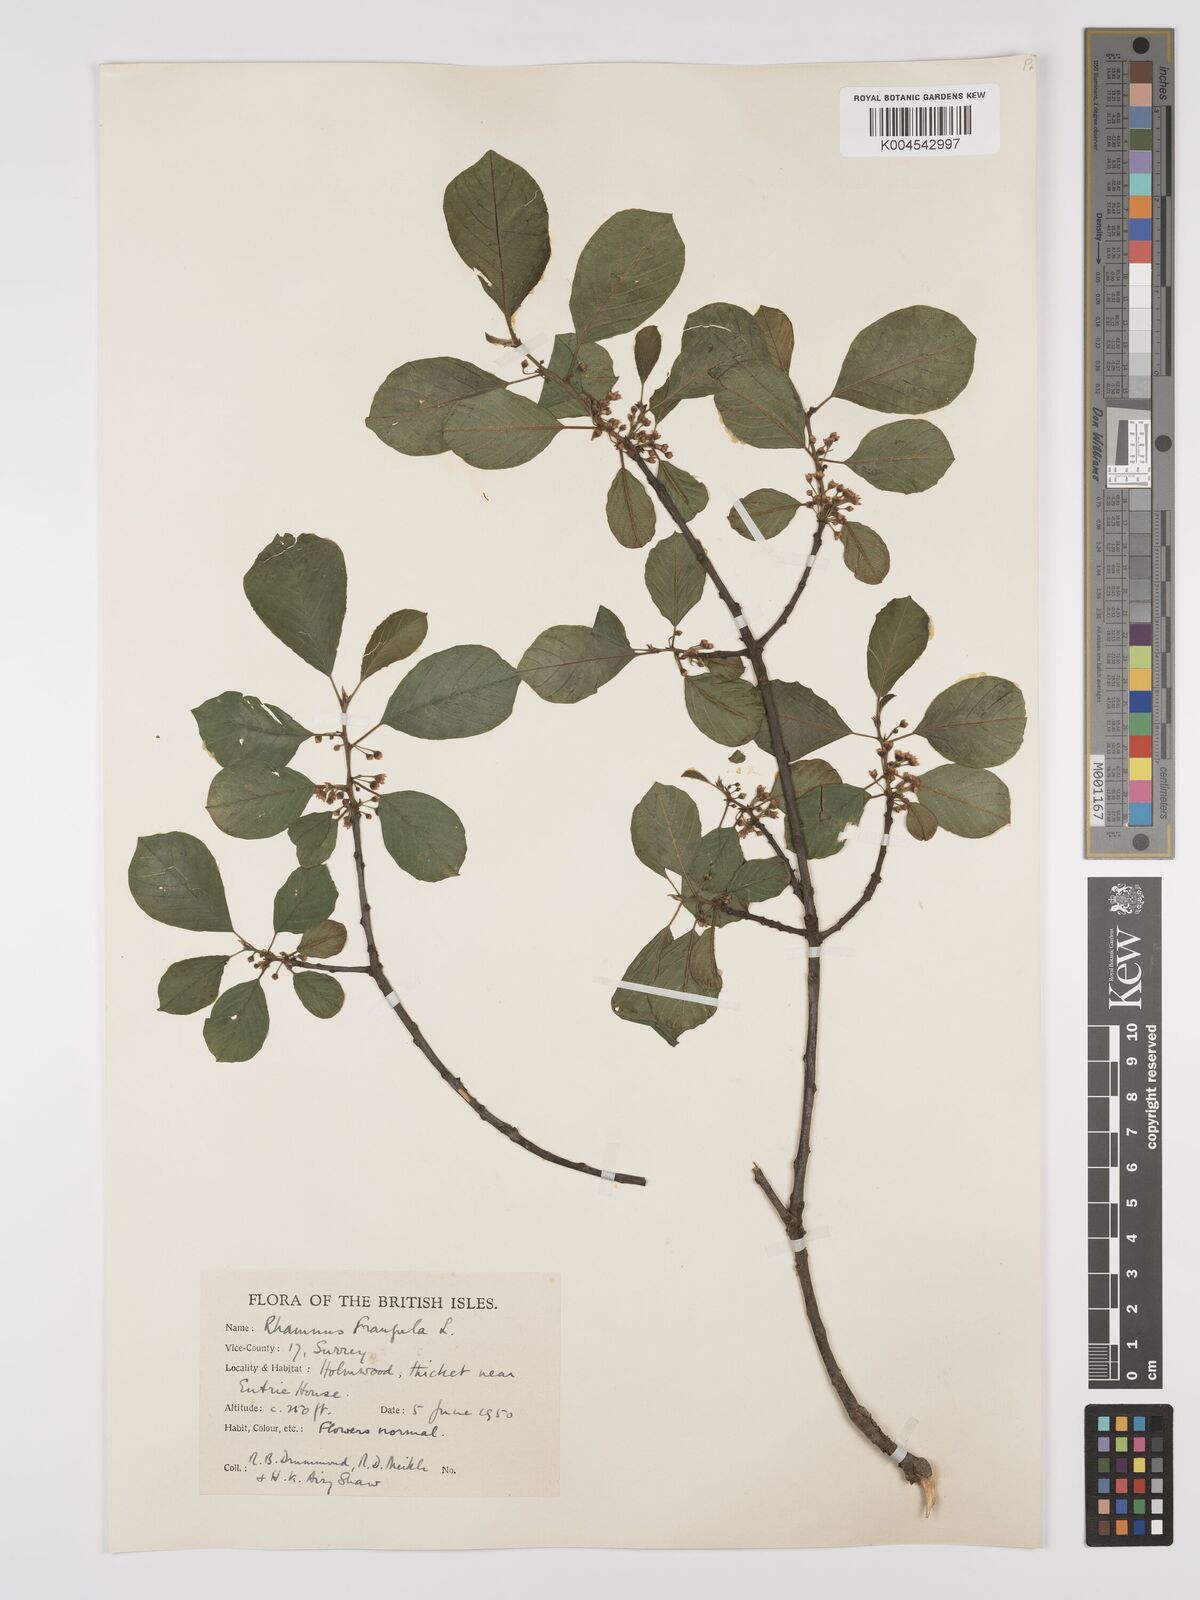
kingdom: Plantae
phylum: Tracheophyta
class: Magnoliopsida
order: Rosales
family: Rhamnaceae
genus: Frangula
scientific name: Frangula alnus
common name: Alder buckthorn
